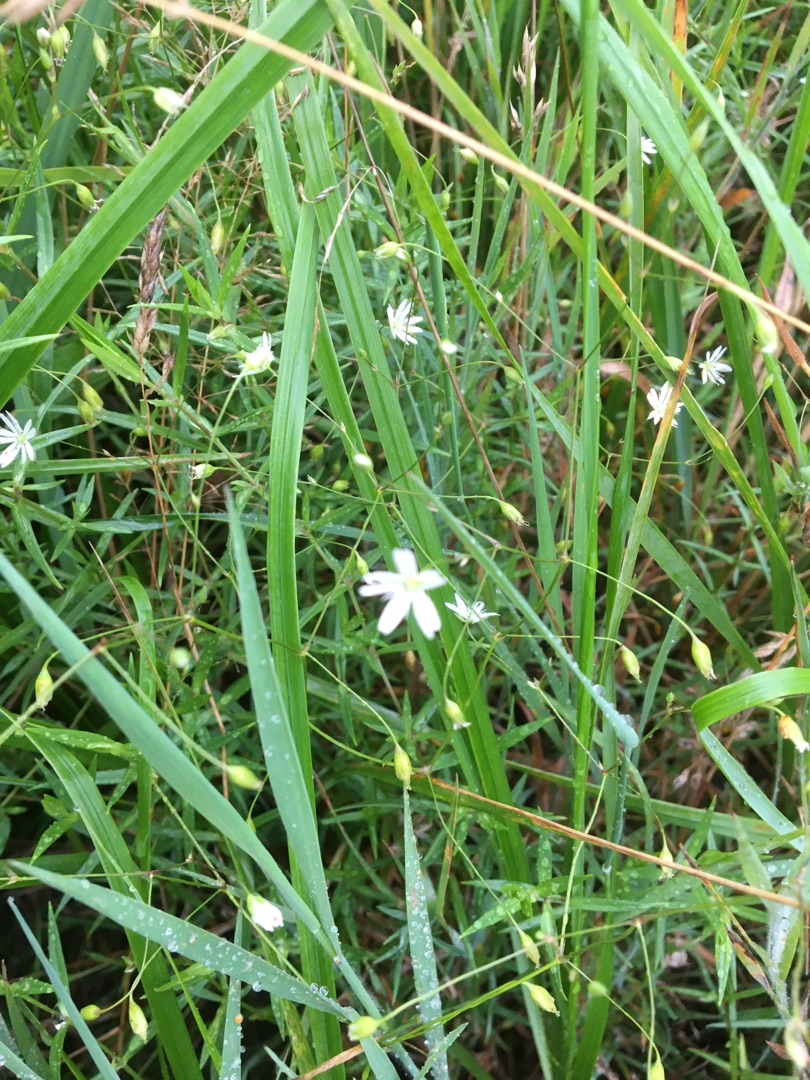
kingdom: Plantae
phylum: Tracheophyta
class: Magnoliopsida
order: Caryophyllales
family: Caryophyllaceae
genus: Stellaria
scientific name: Stellaria graminea
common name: Græsbladet fladstjerne
